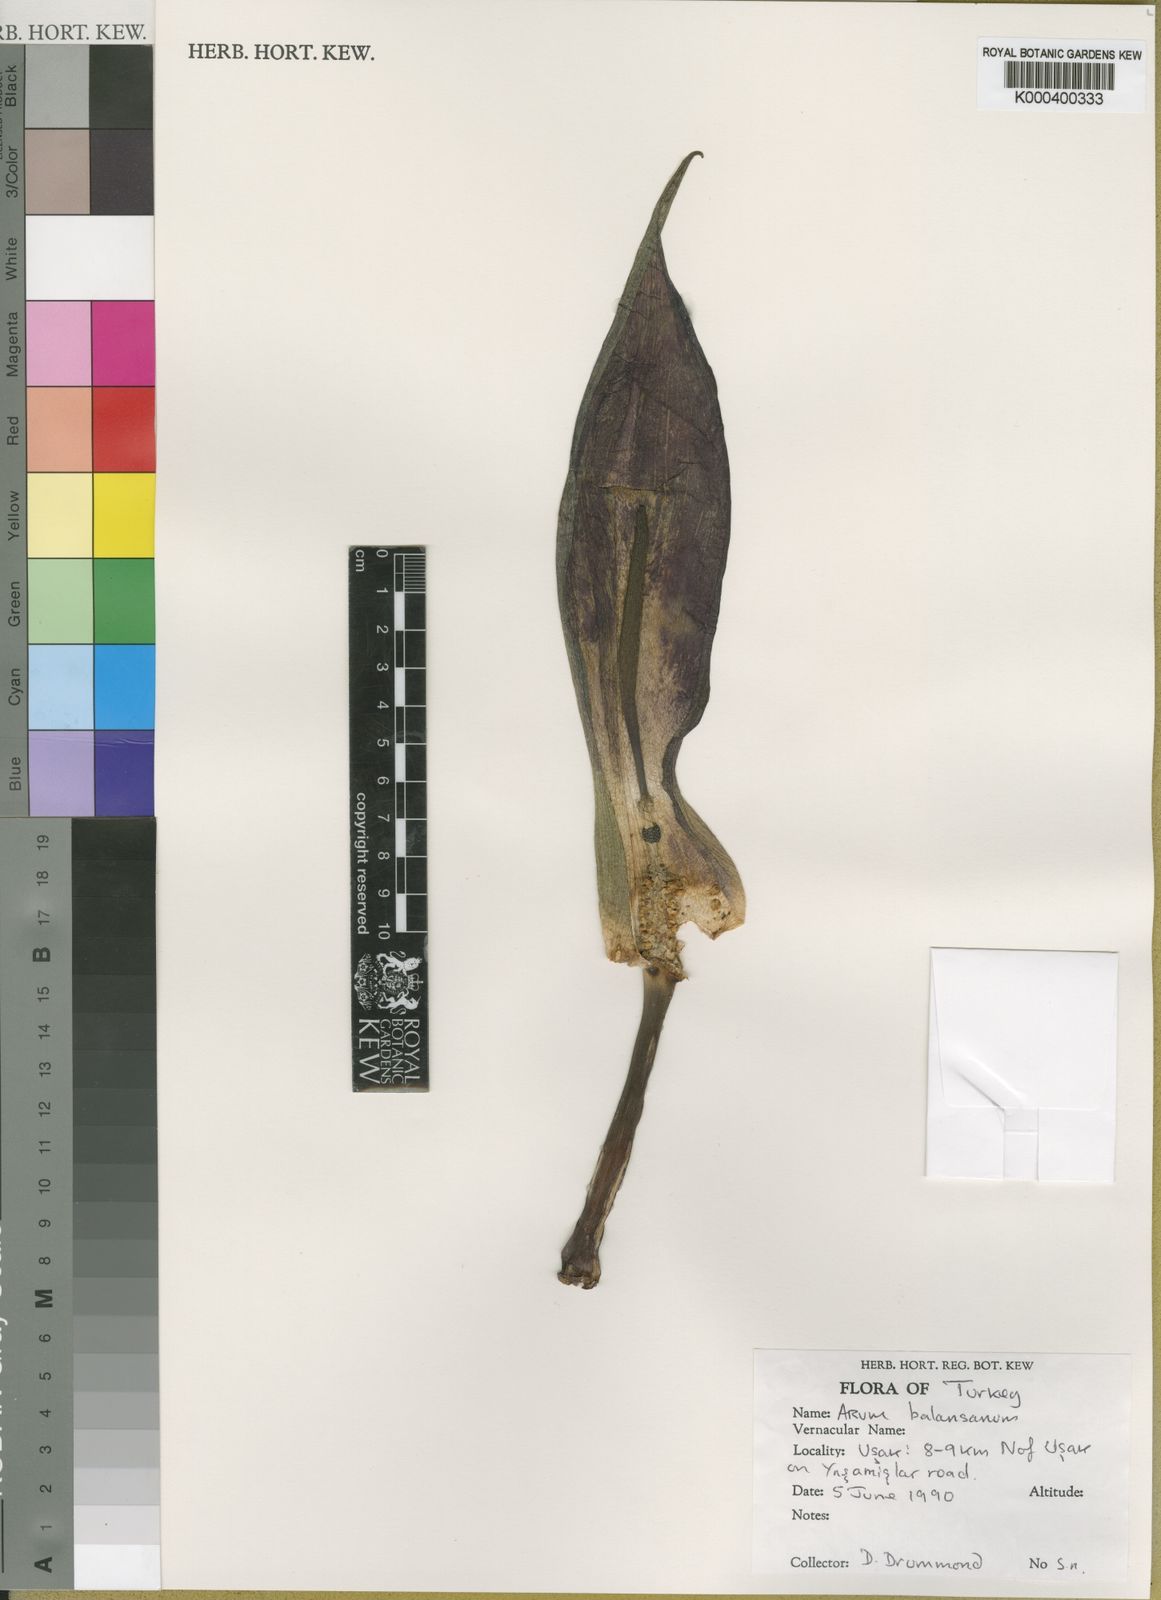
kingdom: Plantae
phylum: Tracheophyta
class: Liliopsida
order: Alismatales
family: Araceae
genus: Arum
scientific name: Arum orientale
